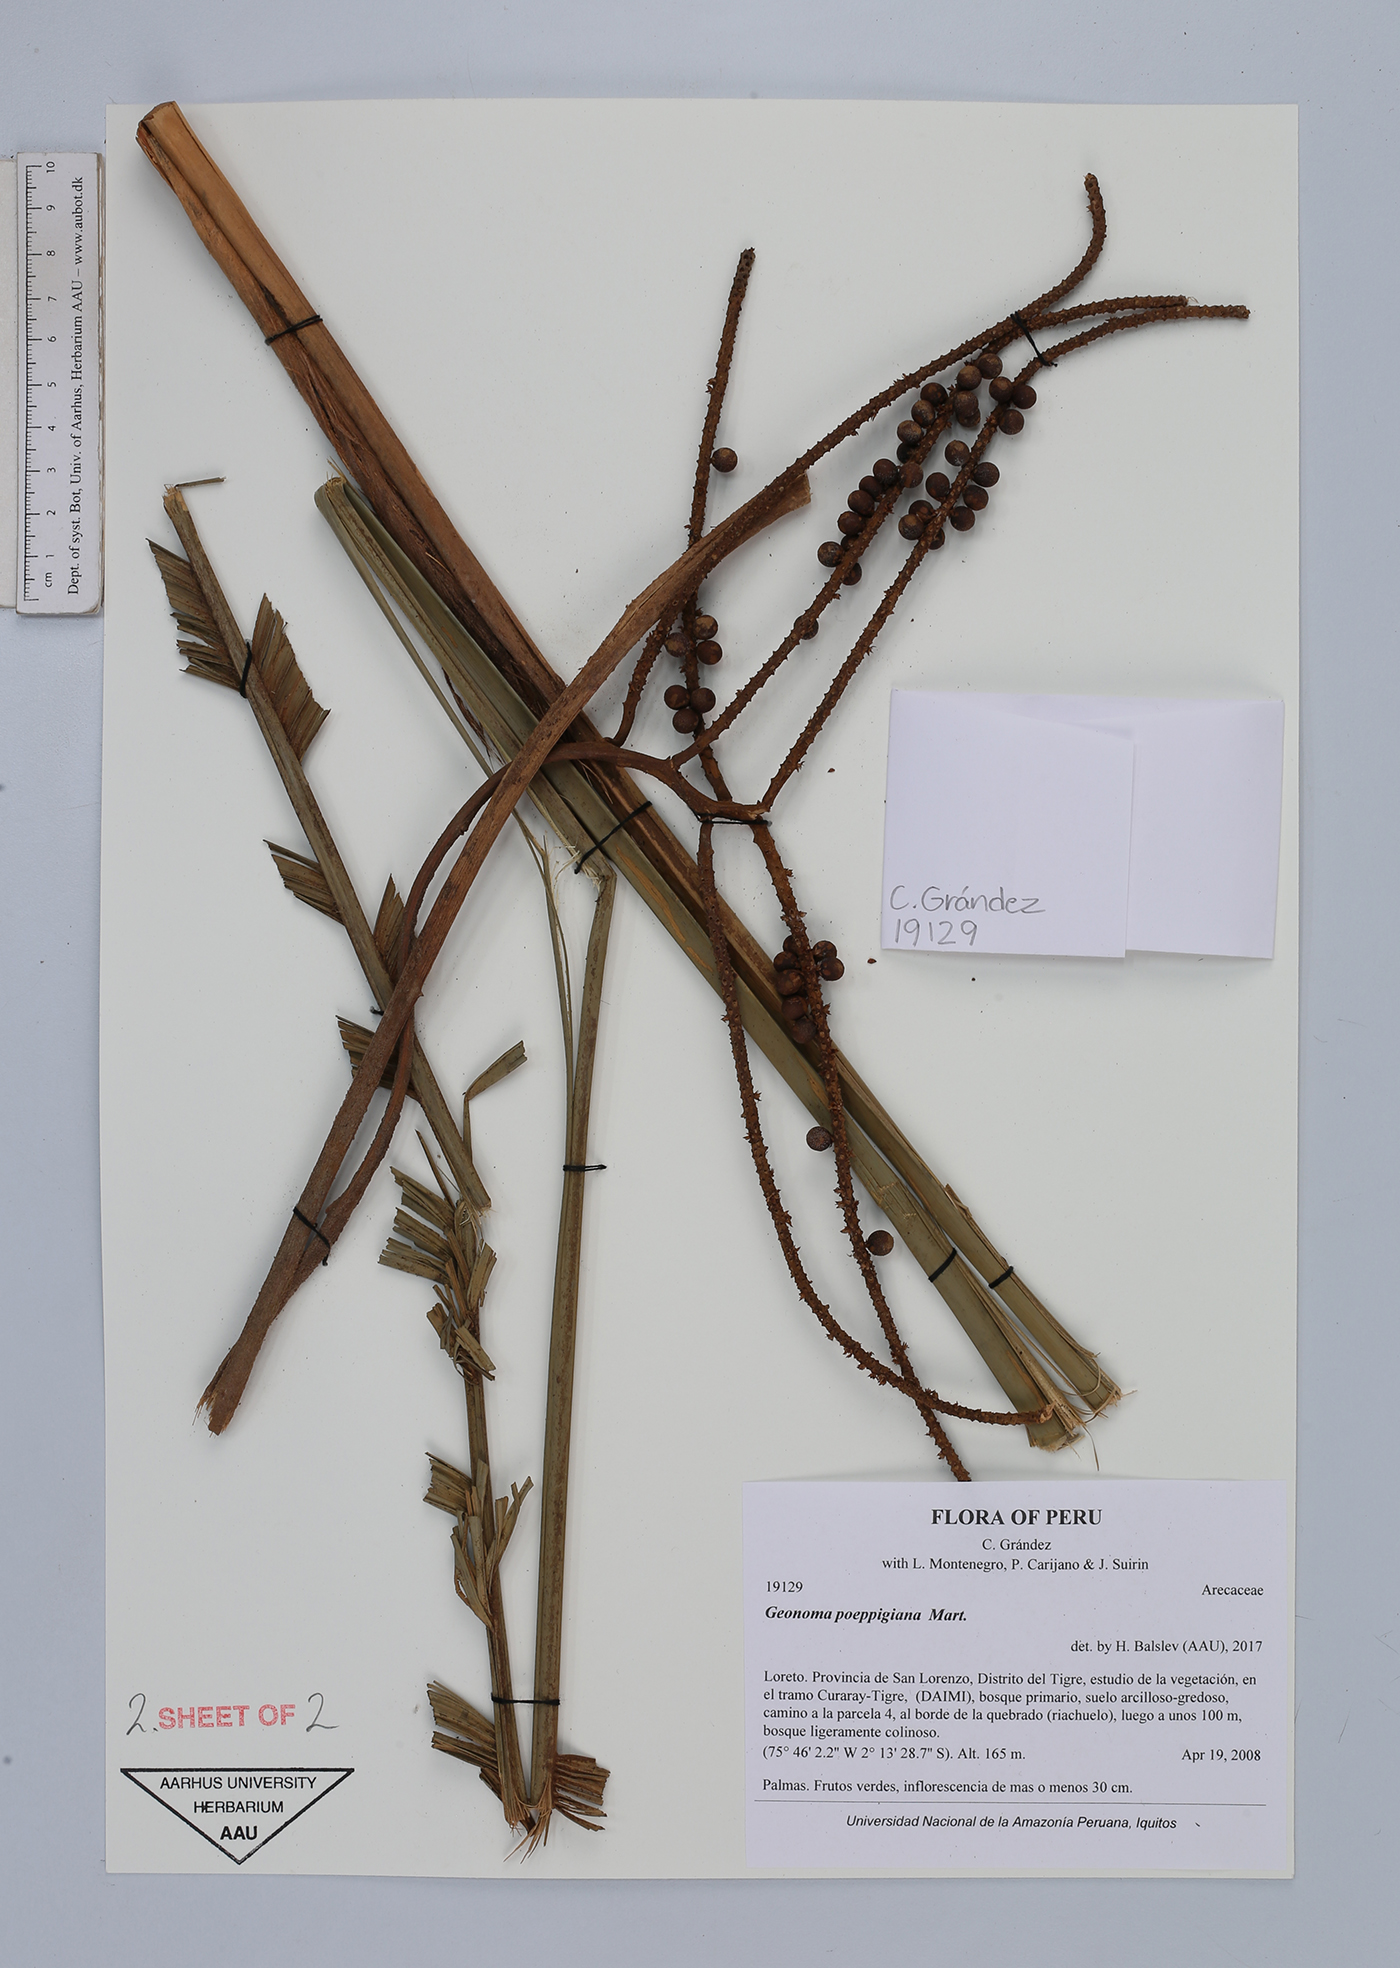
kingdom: Plantae
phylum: Tracheophyta
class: Liliopsida
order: Arecales
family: Arecaceae
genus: Geonoma
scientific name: Geonoma poeppigiana
